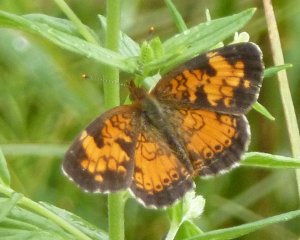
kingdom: Animalia
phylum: Arthropoda
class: Insecta
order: Lepidoptera
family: Nymphalidae
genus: Phyciodes
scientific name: Phyciodes tharos
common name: Northern Crescent
